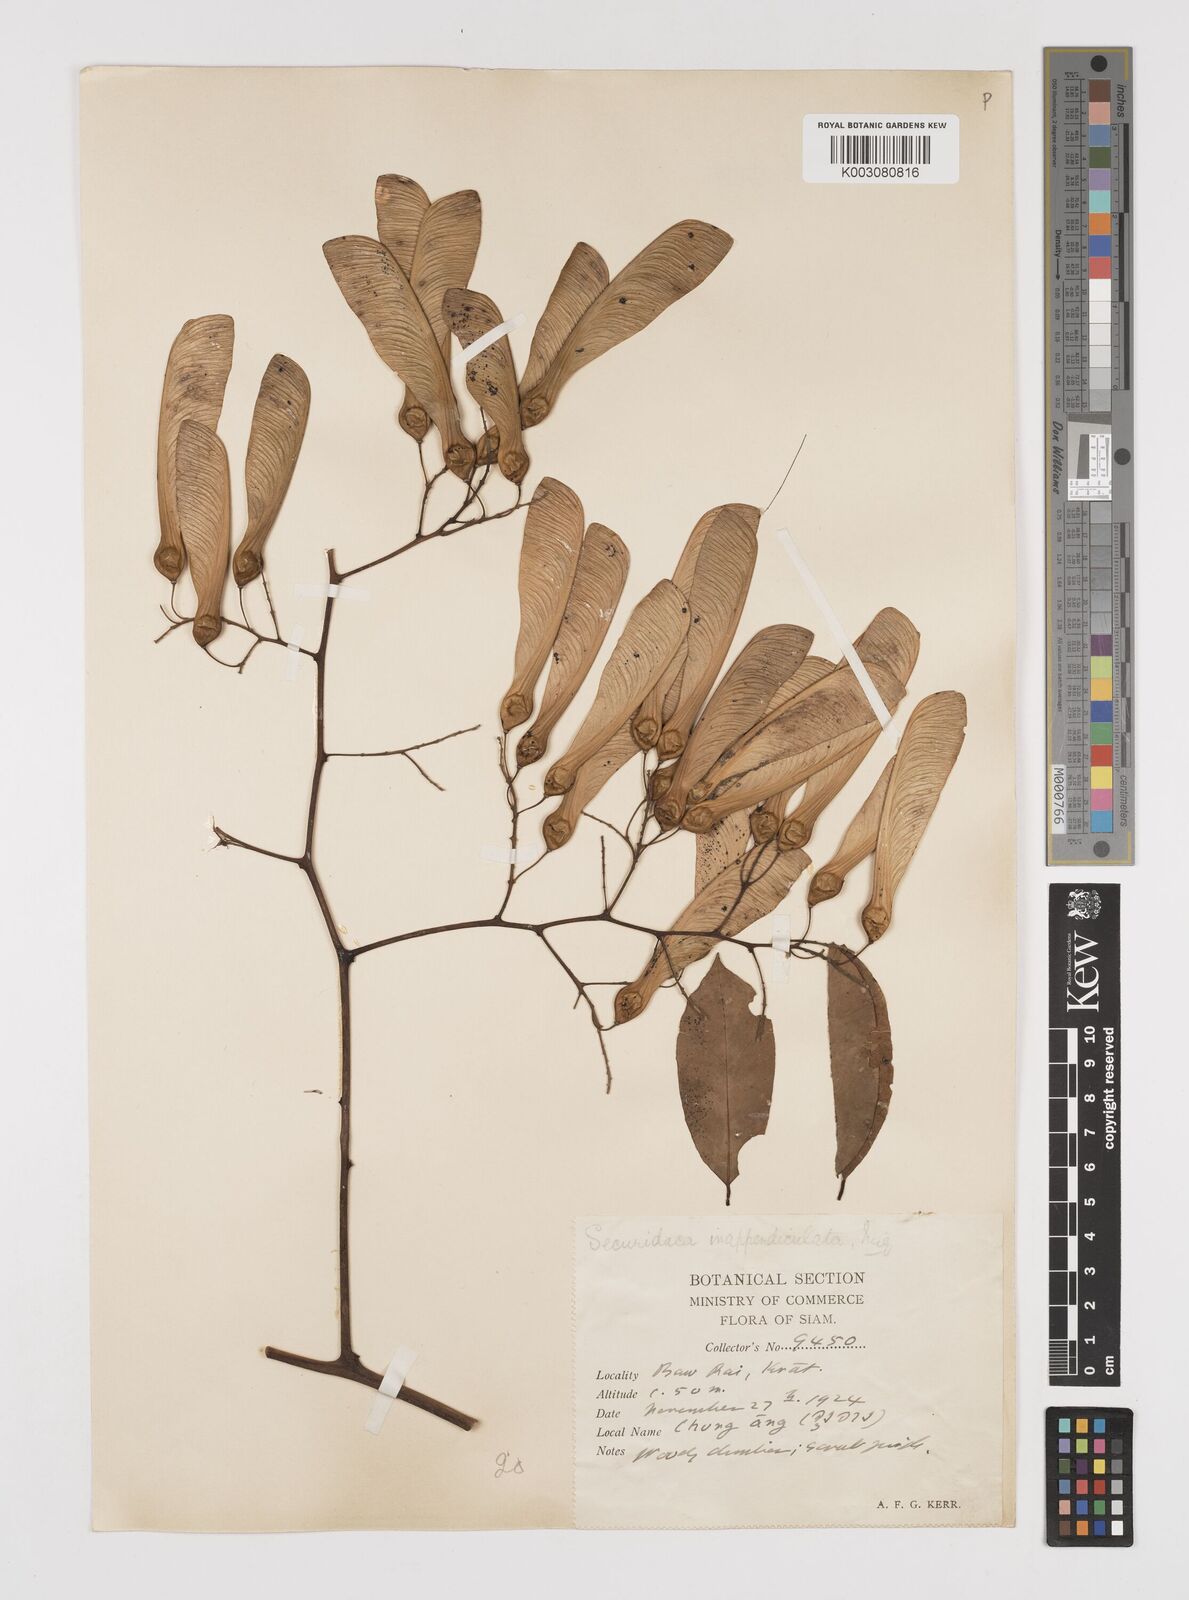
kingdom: Plantae
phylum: Tracheophyta
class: Magnoliopsida
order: Fabales
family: Polygalaceae
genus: Securidaca
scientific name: Securidaca inappendiculata
